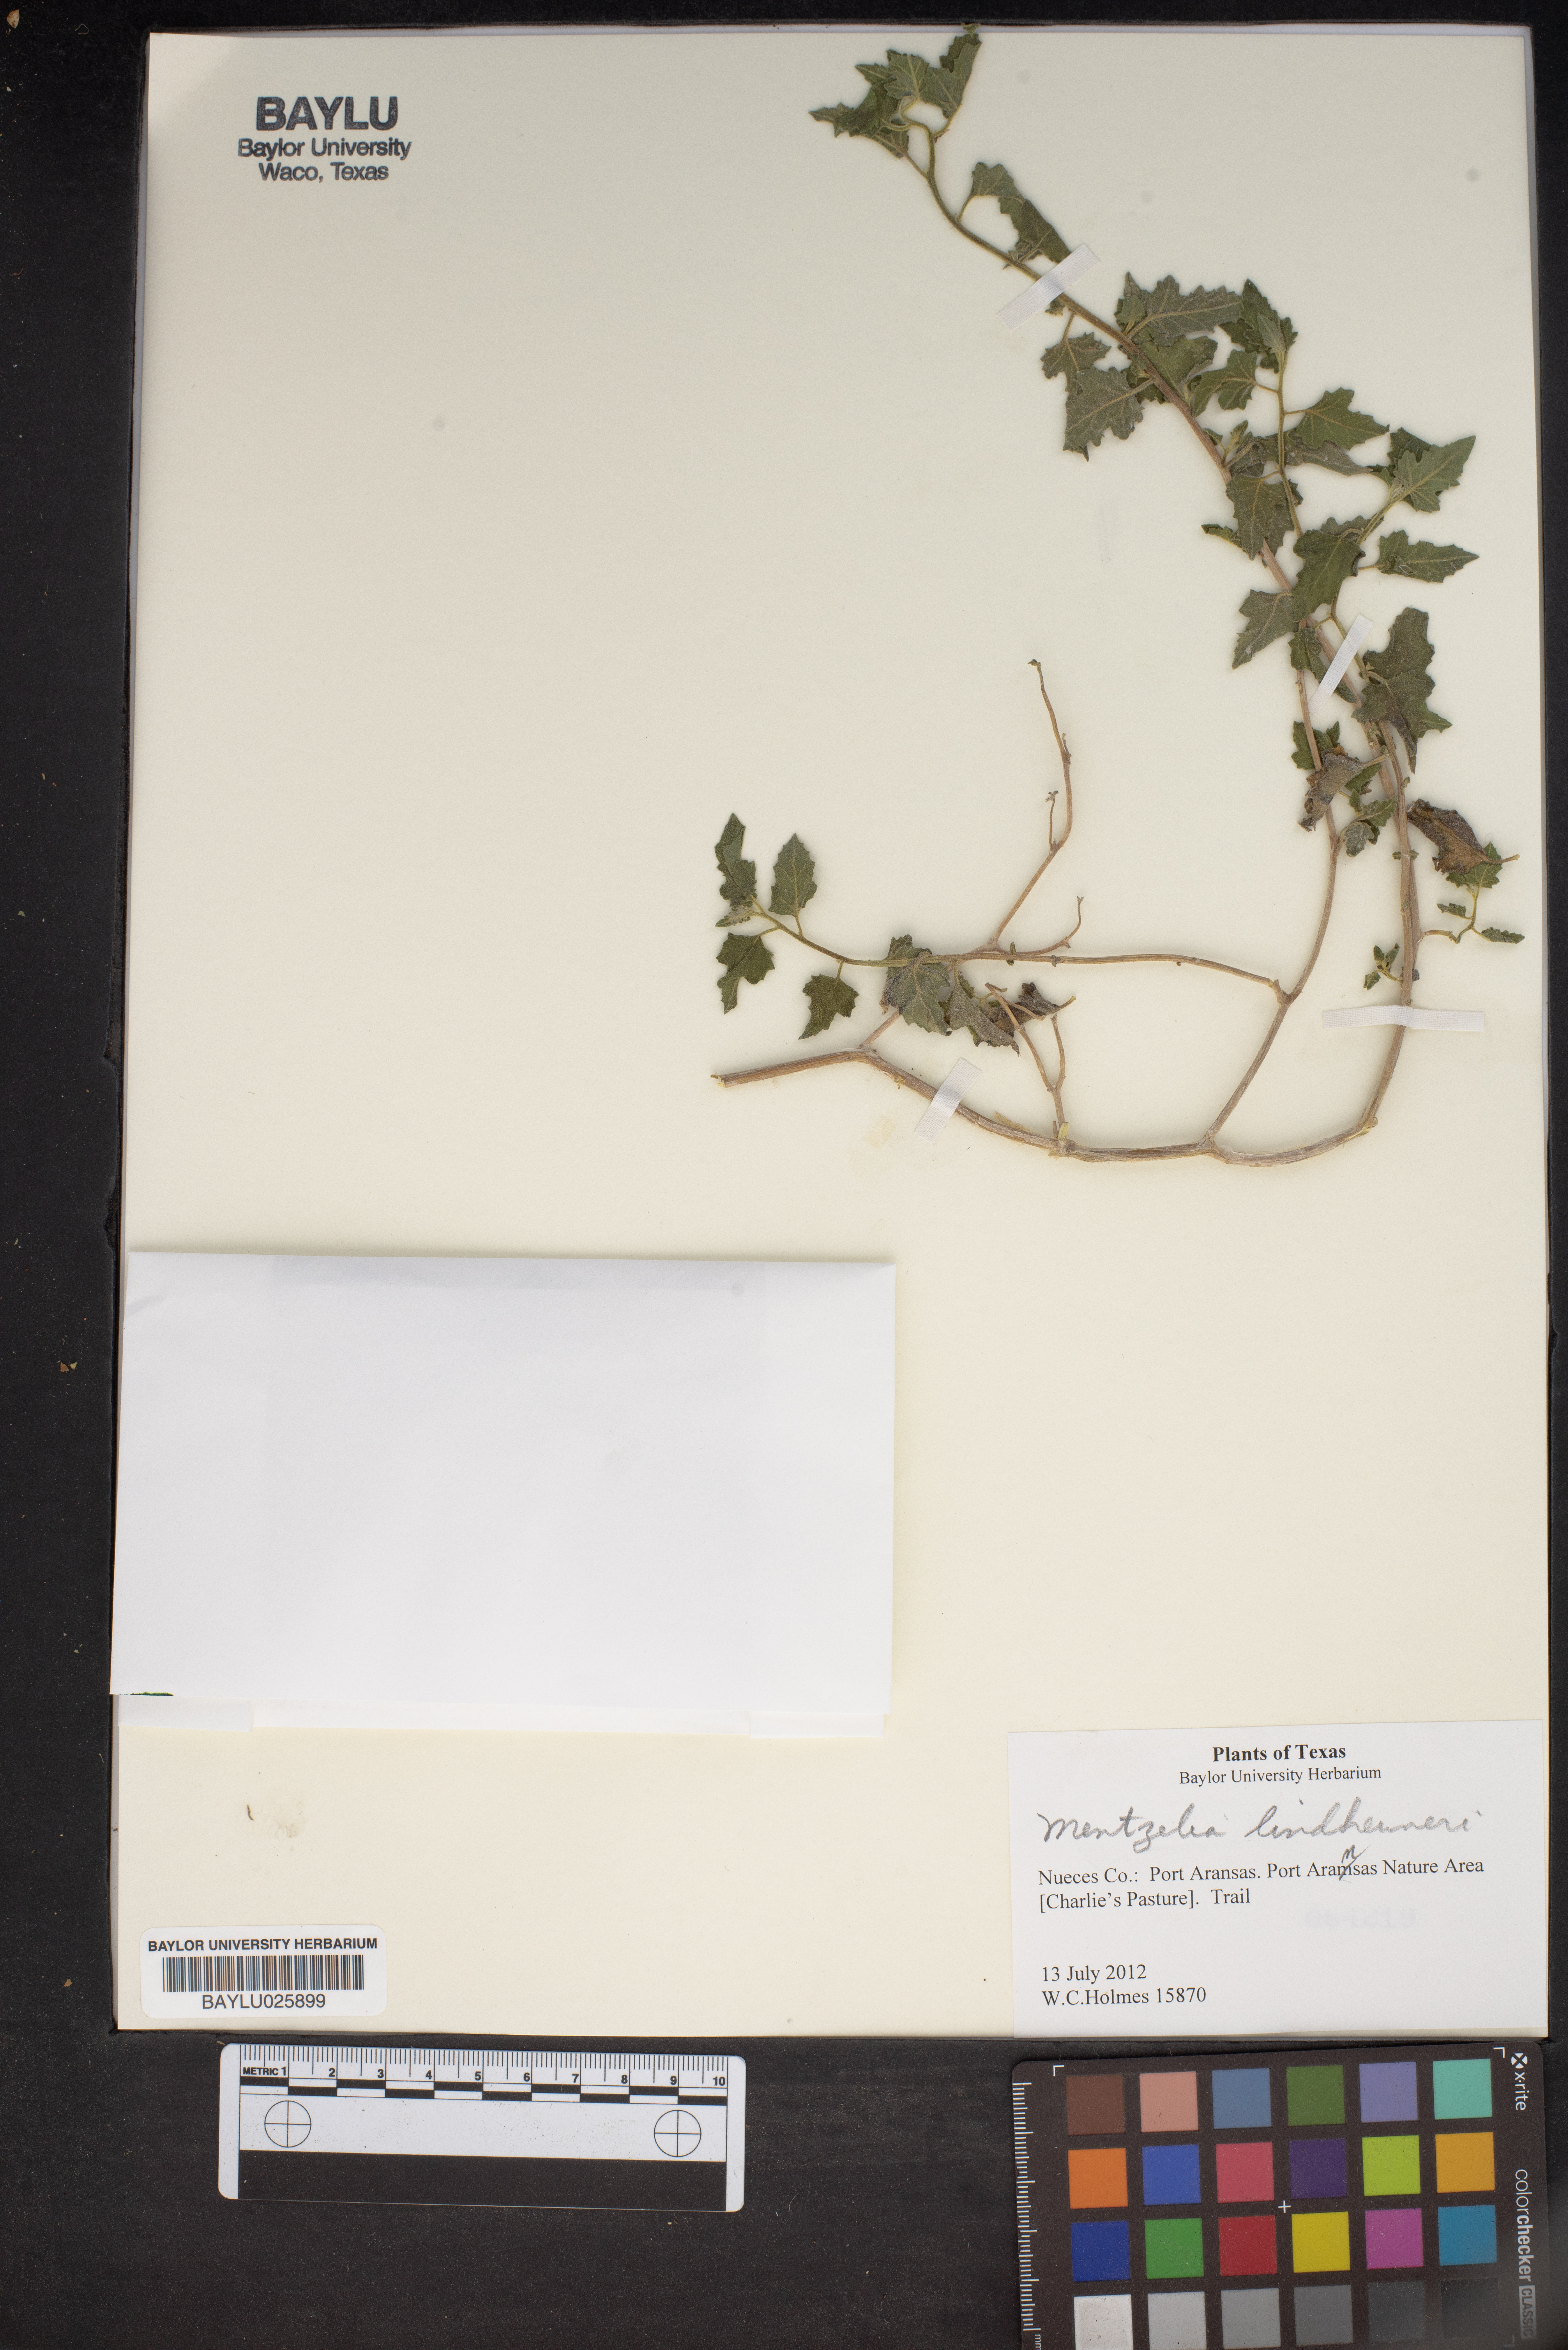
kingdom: Plantae
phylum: Tracheophyta
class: Magnoliopsida
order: Cornales
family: Loasaceae
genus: Mentzelia
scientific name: Mentzelia lindheimeri
